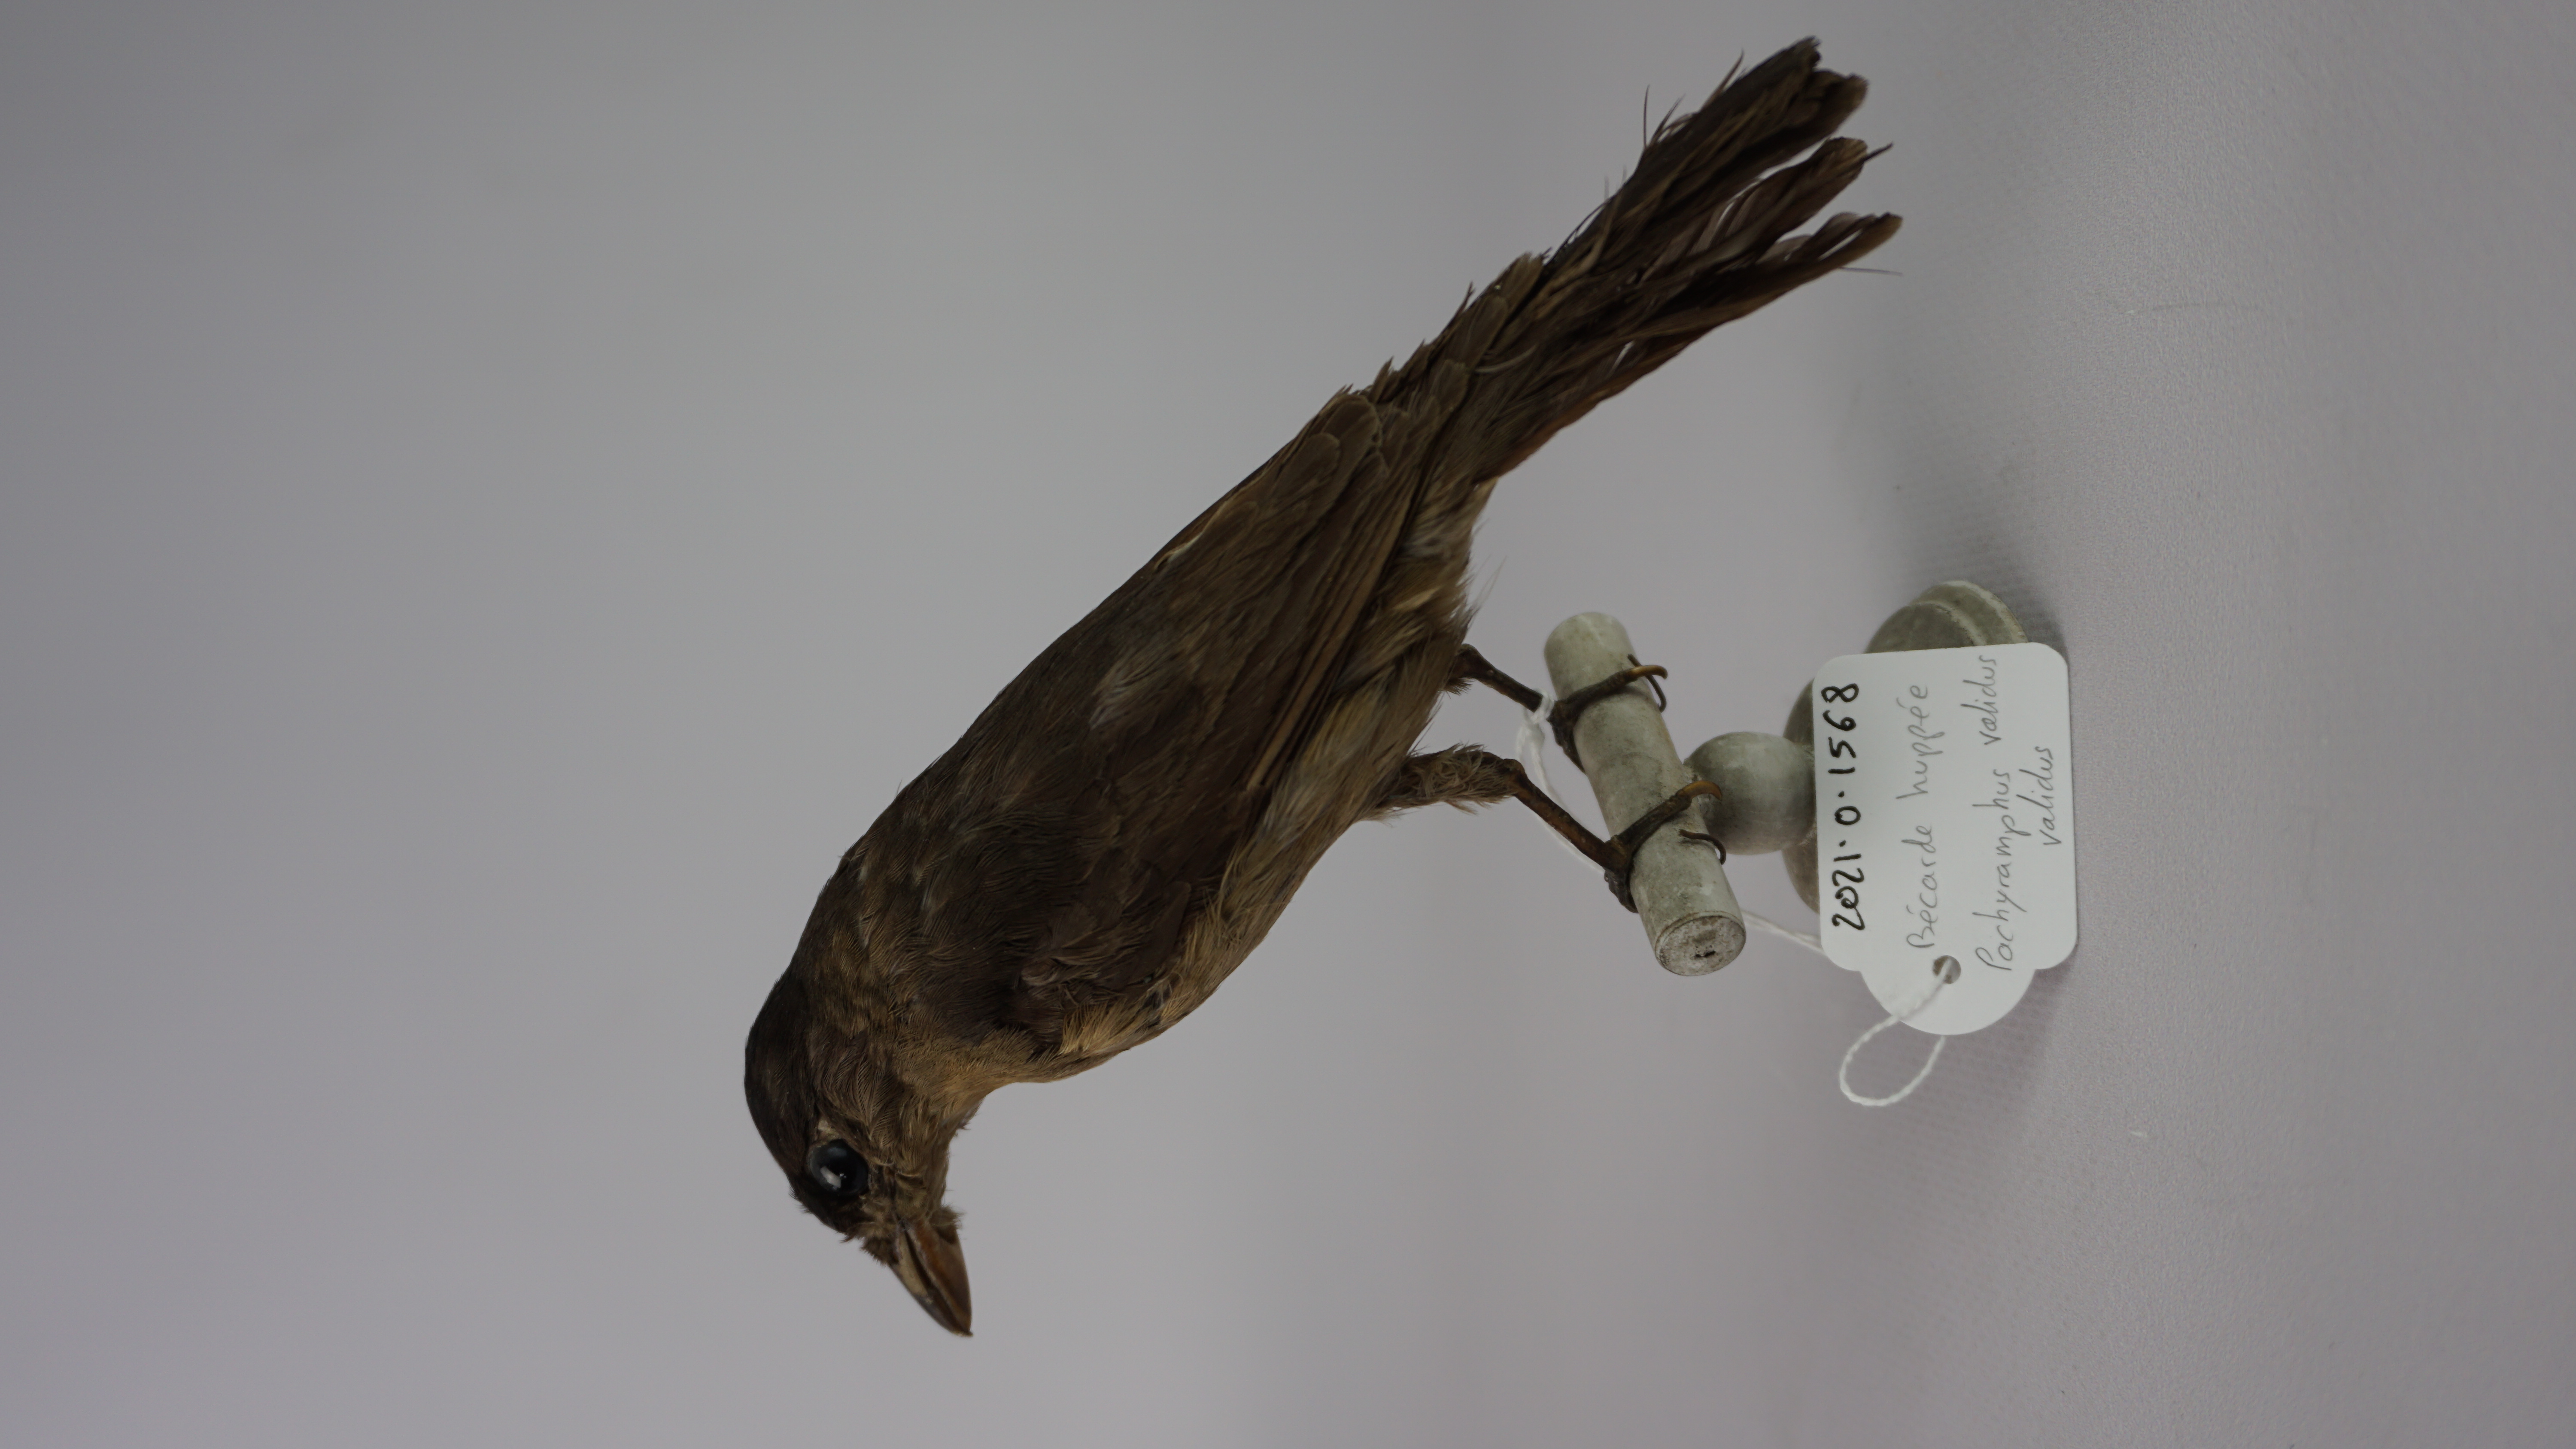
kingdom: Animalia
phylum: Chordata
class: Aves
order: Passeriformes
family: Cotingidae
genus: Pachyramphus
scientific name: Pachyramphus validus
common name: Crested becard
